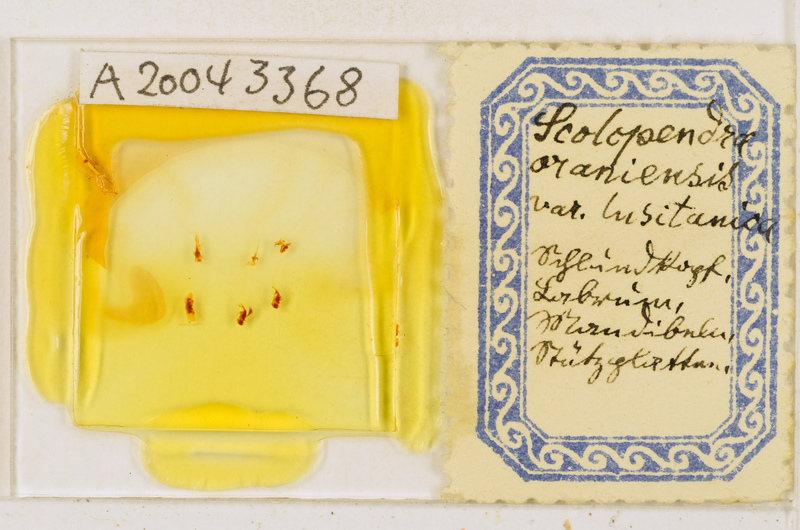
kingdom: Animalia
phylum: Arthropoda
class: Chilopoda
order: Scolopendromorpha
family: Scolopendridae
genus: Scolopendra
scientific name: Scolopendra oraniensis
